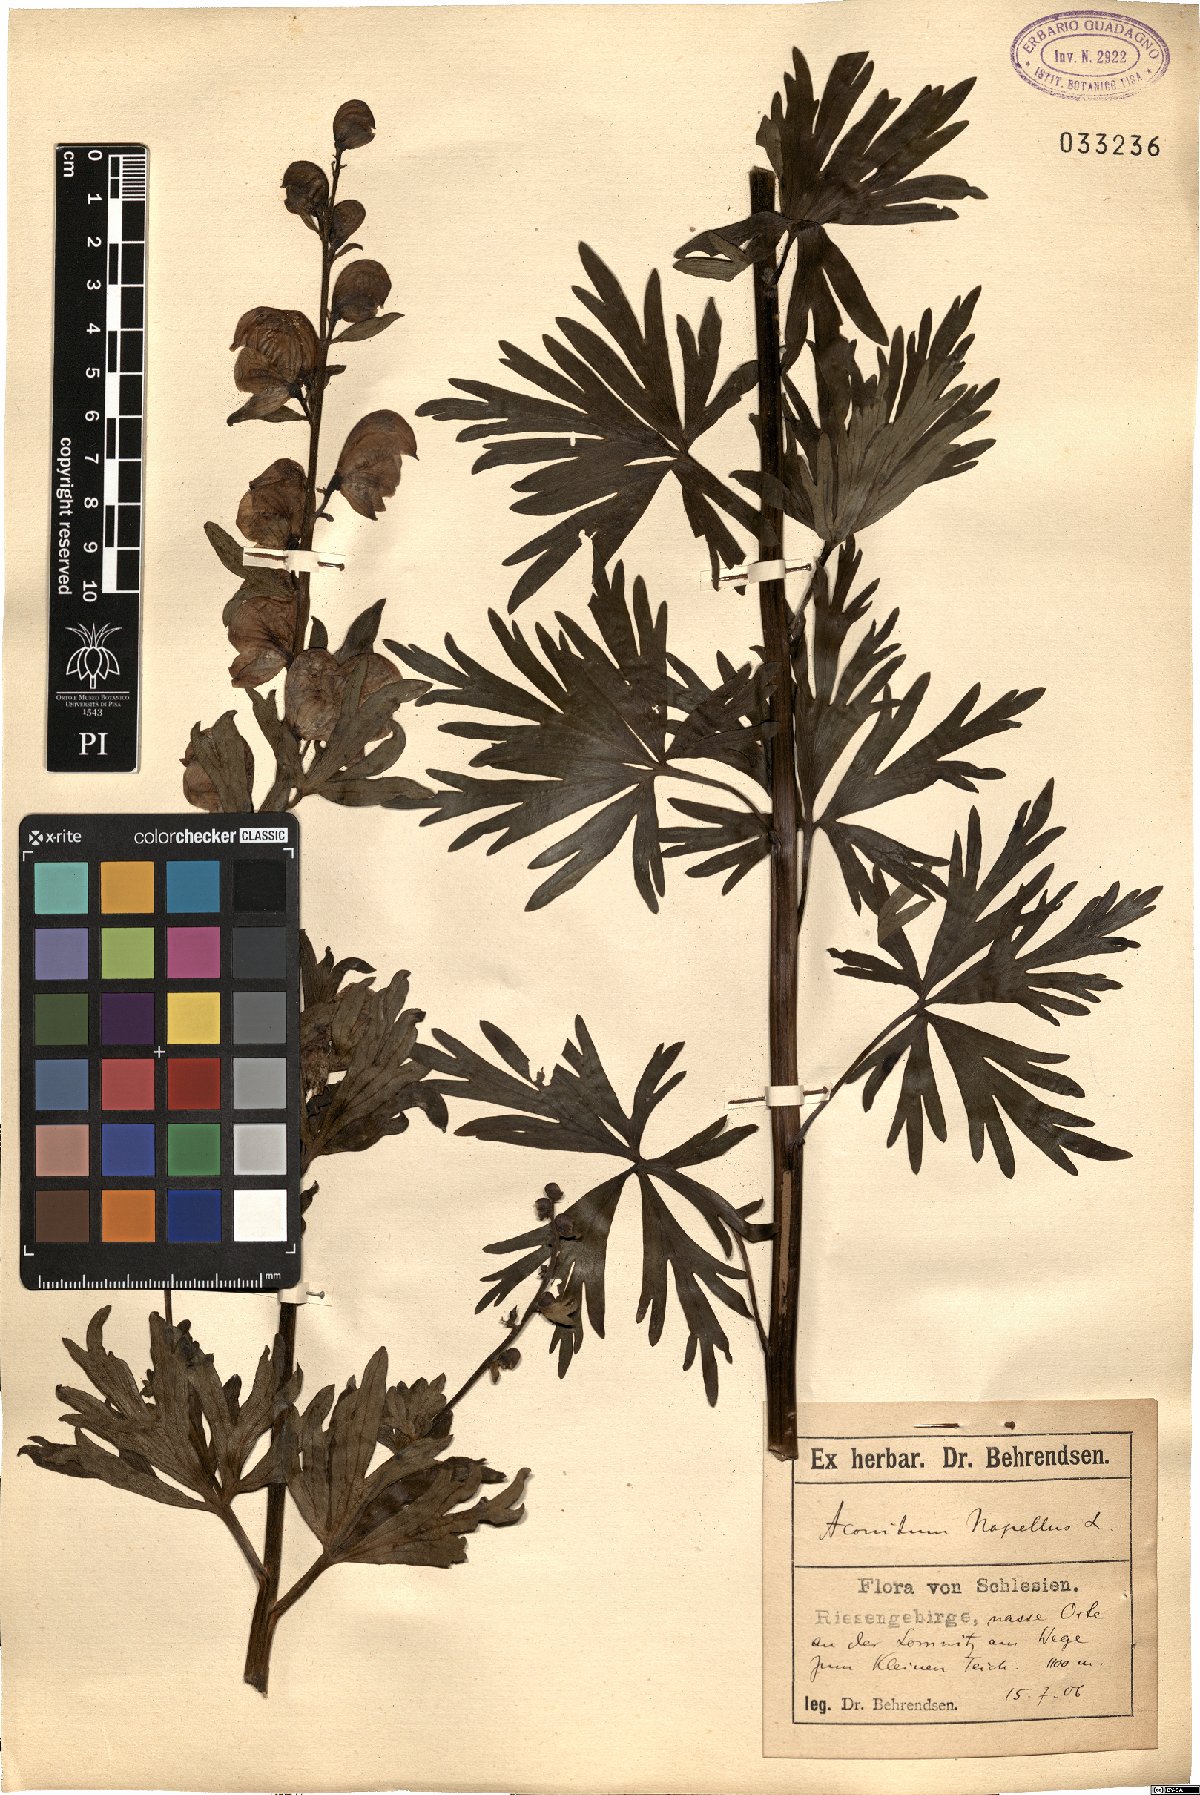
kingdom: Plantae
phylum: Tracheophyta
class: Magnoliopsida
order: Ranunculales
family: Ranunculaceae
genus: Aconitum
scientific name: Aconitum napellus
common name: Garden monkshood
